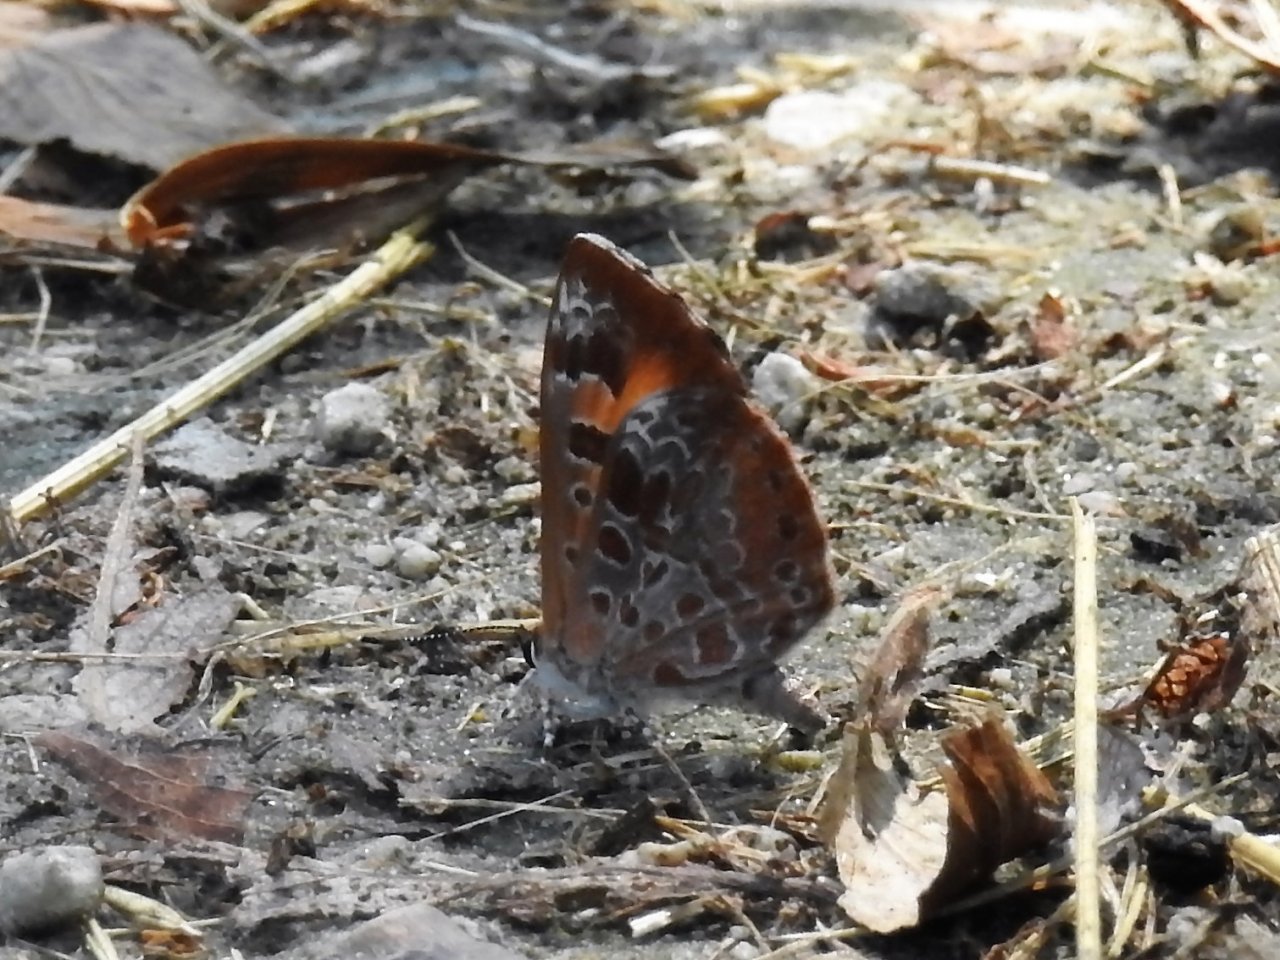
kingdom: Animalia
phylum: Arthropoda
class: Insecta
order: Lepidoptera
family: Lycaenidae
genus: Feniseca
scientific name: Feniseca tarquinius
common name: Harvester
